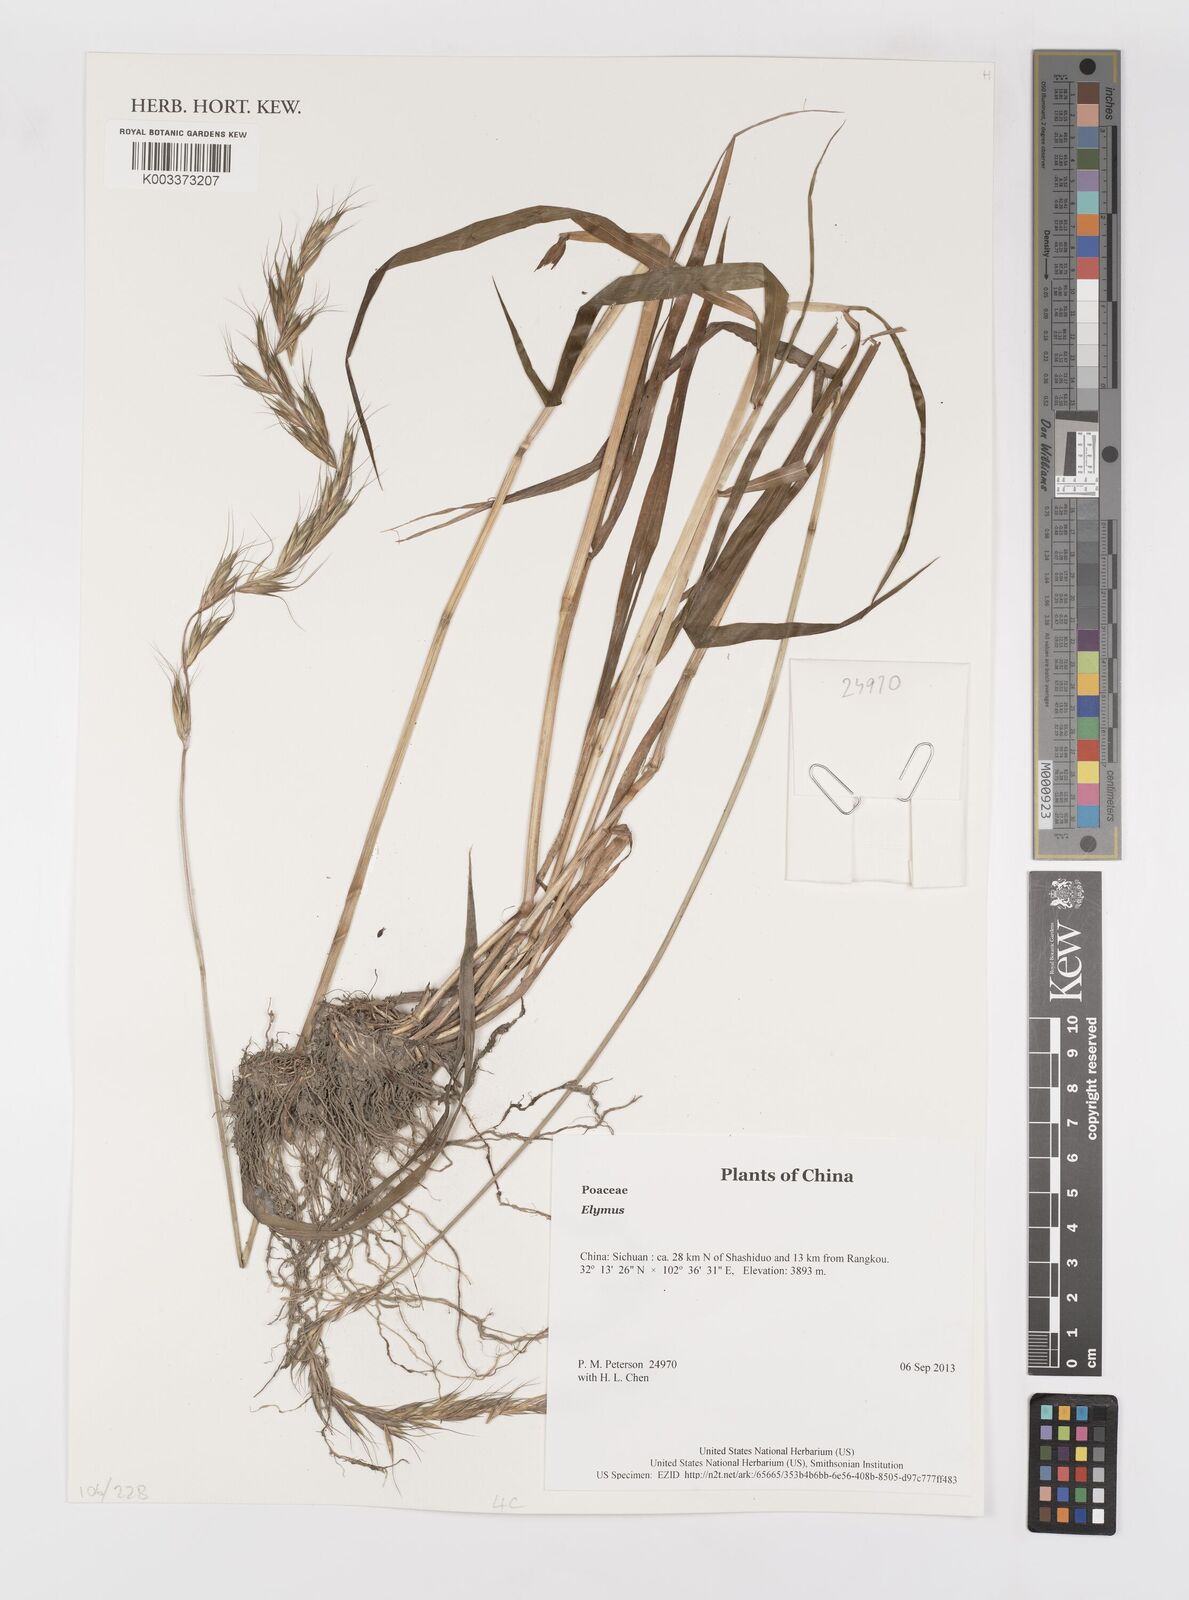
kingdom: Plantae
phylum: Tracheophyta
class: Liliopsida
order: Poales
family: Poaceae
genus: Elymus
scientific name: Elymus
